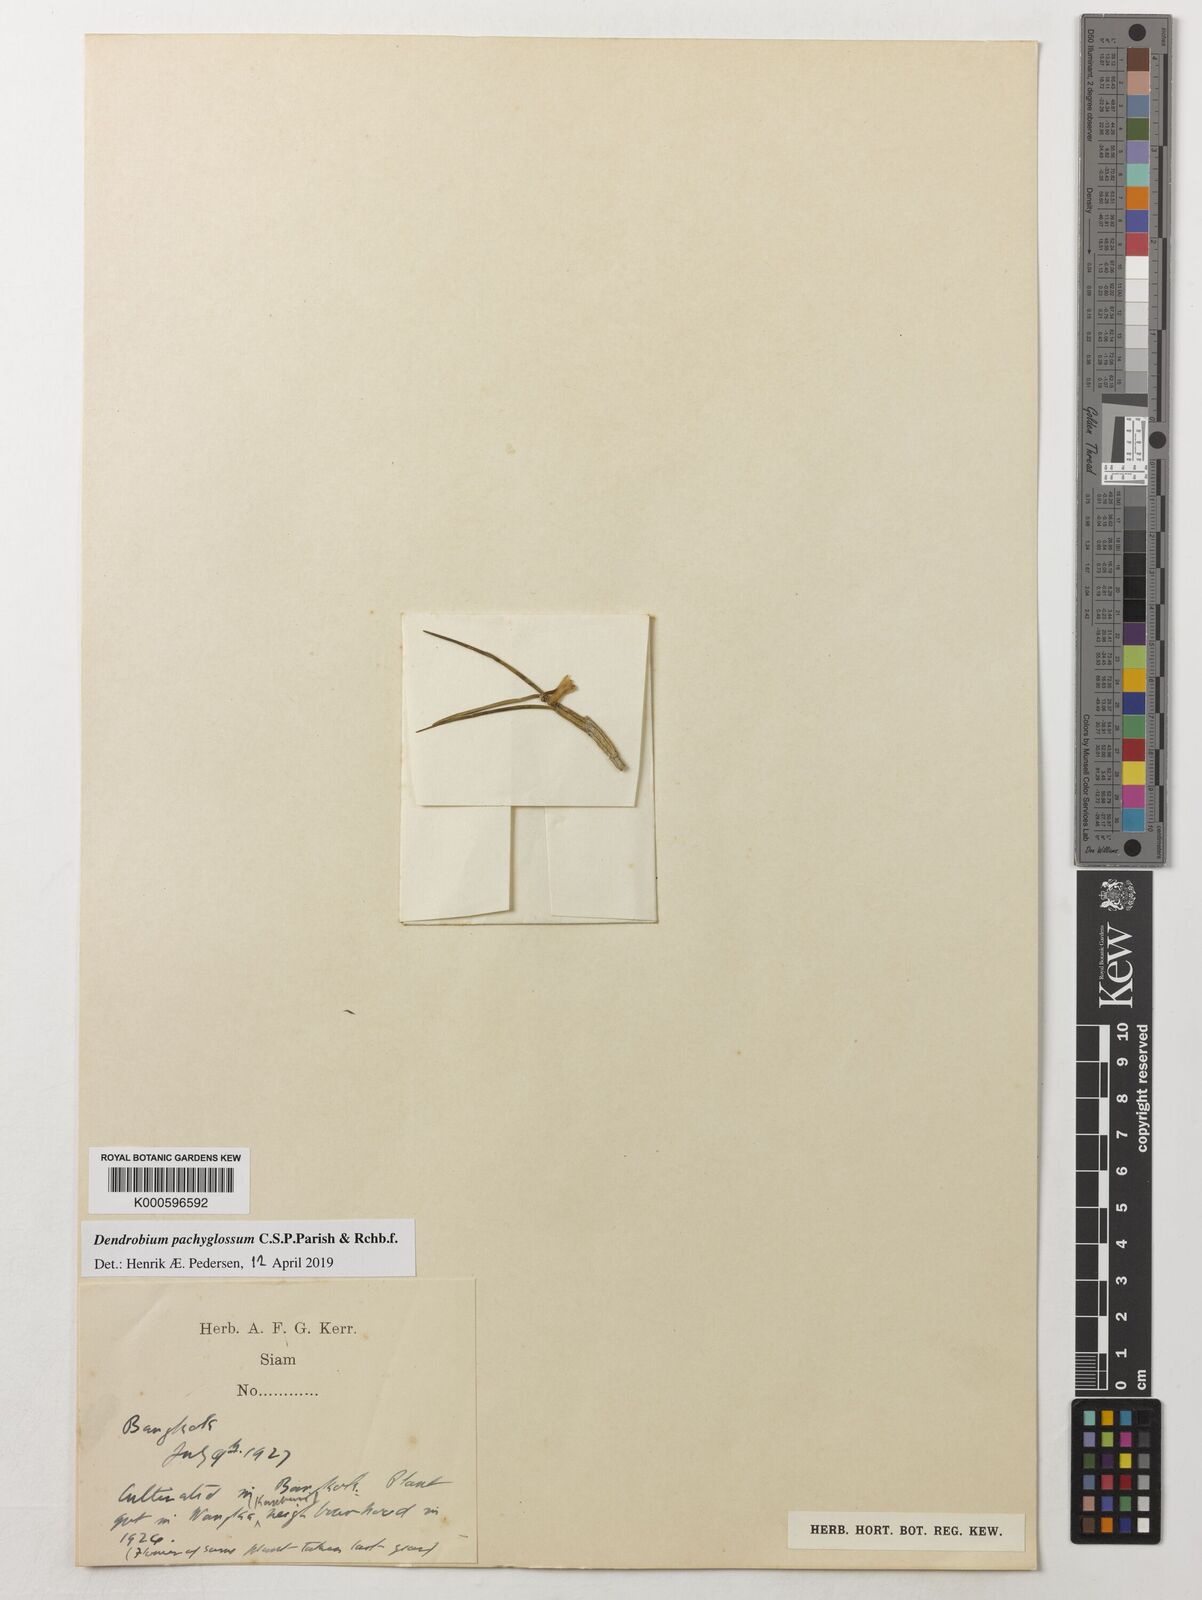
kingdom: Plantae
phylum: Tracheophyta
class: Liliopsida
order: Asparagales
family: Orchidaceae
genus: Dendrobium
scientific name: Dendrobium pachyglossum
